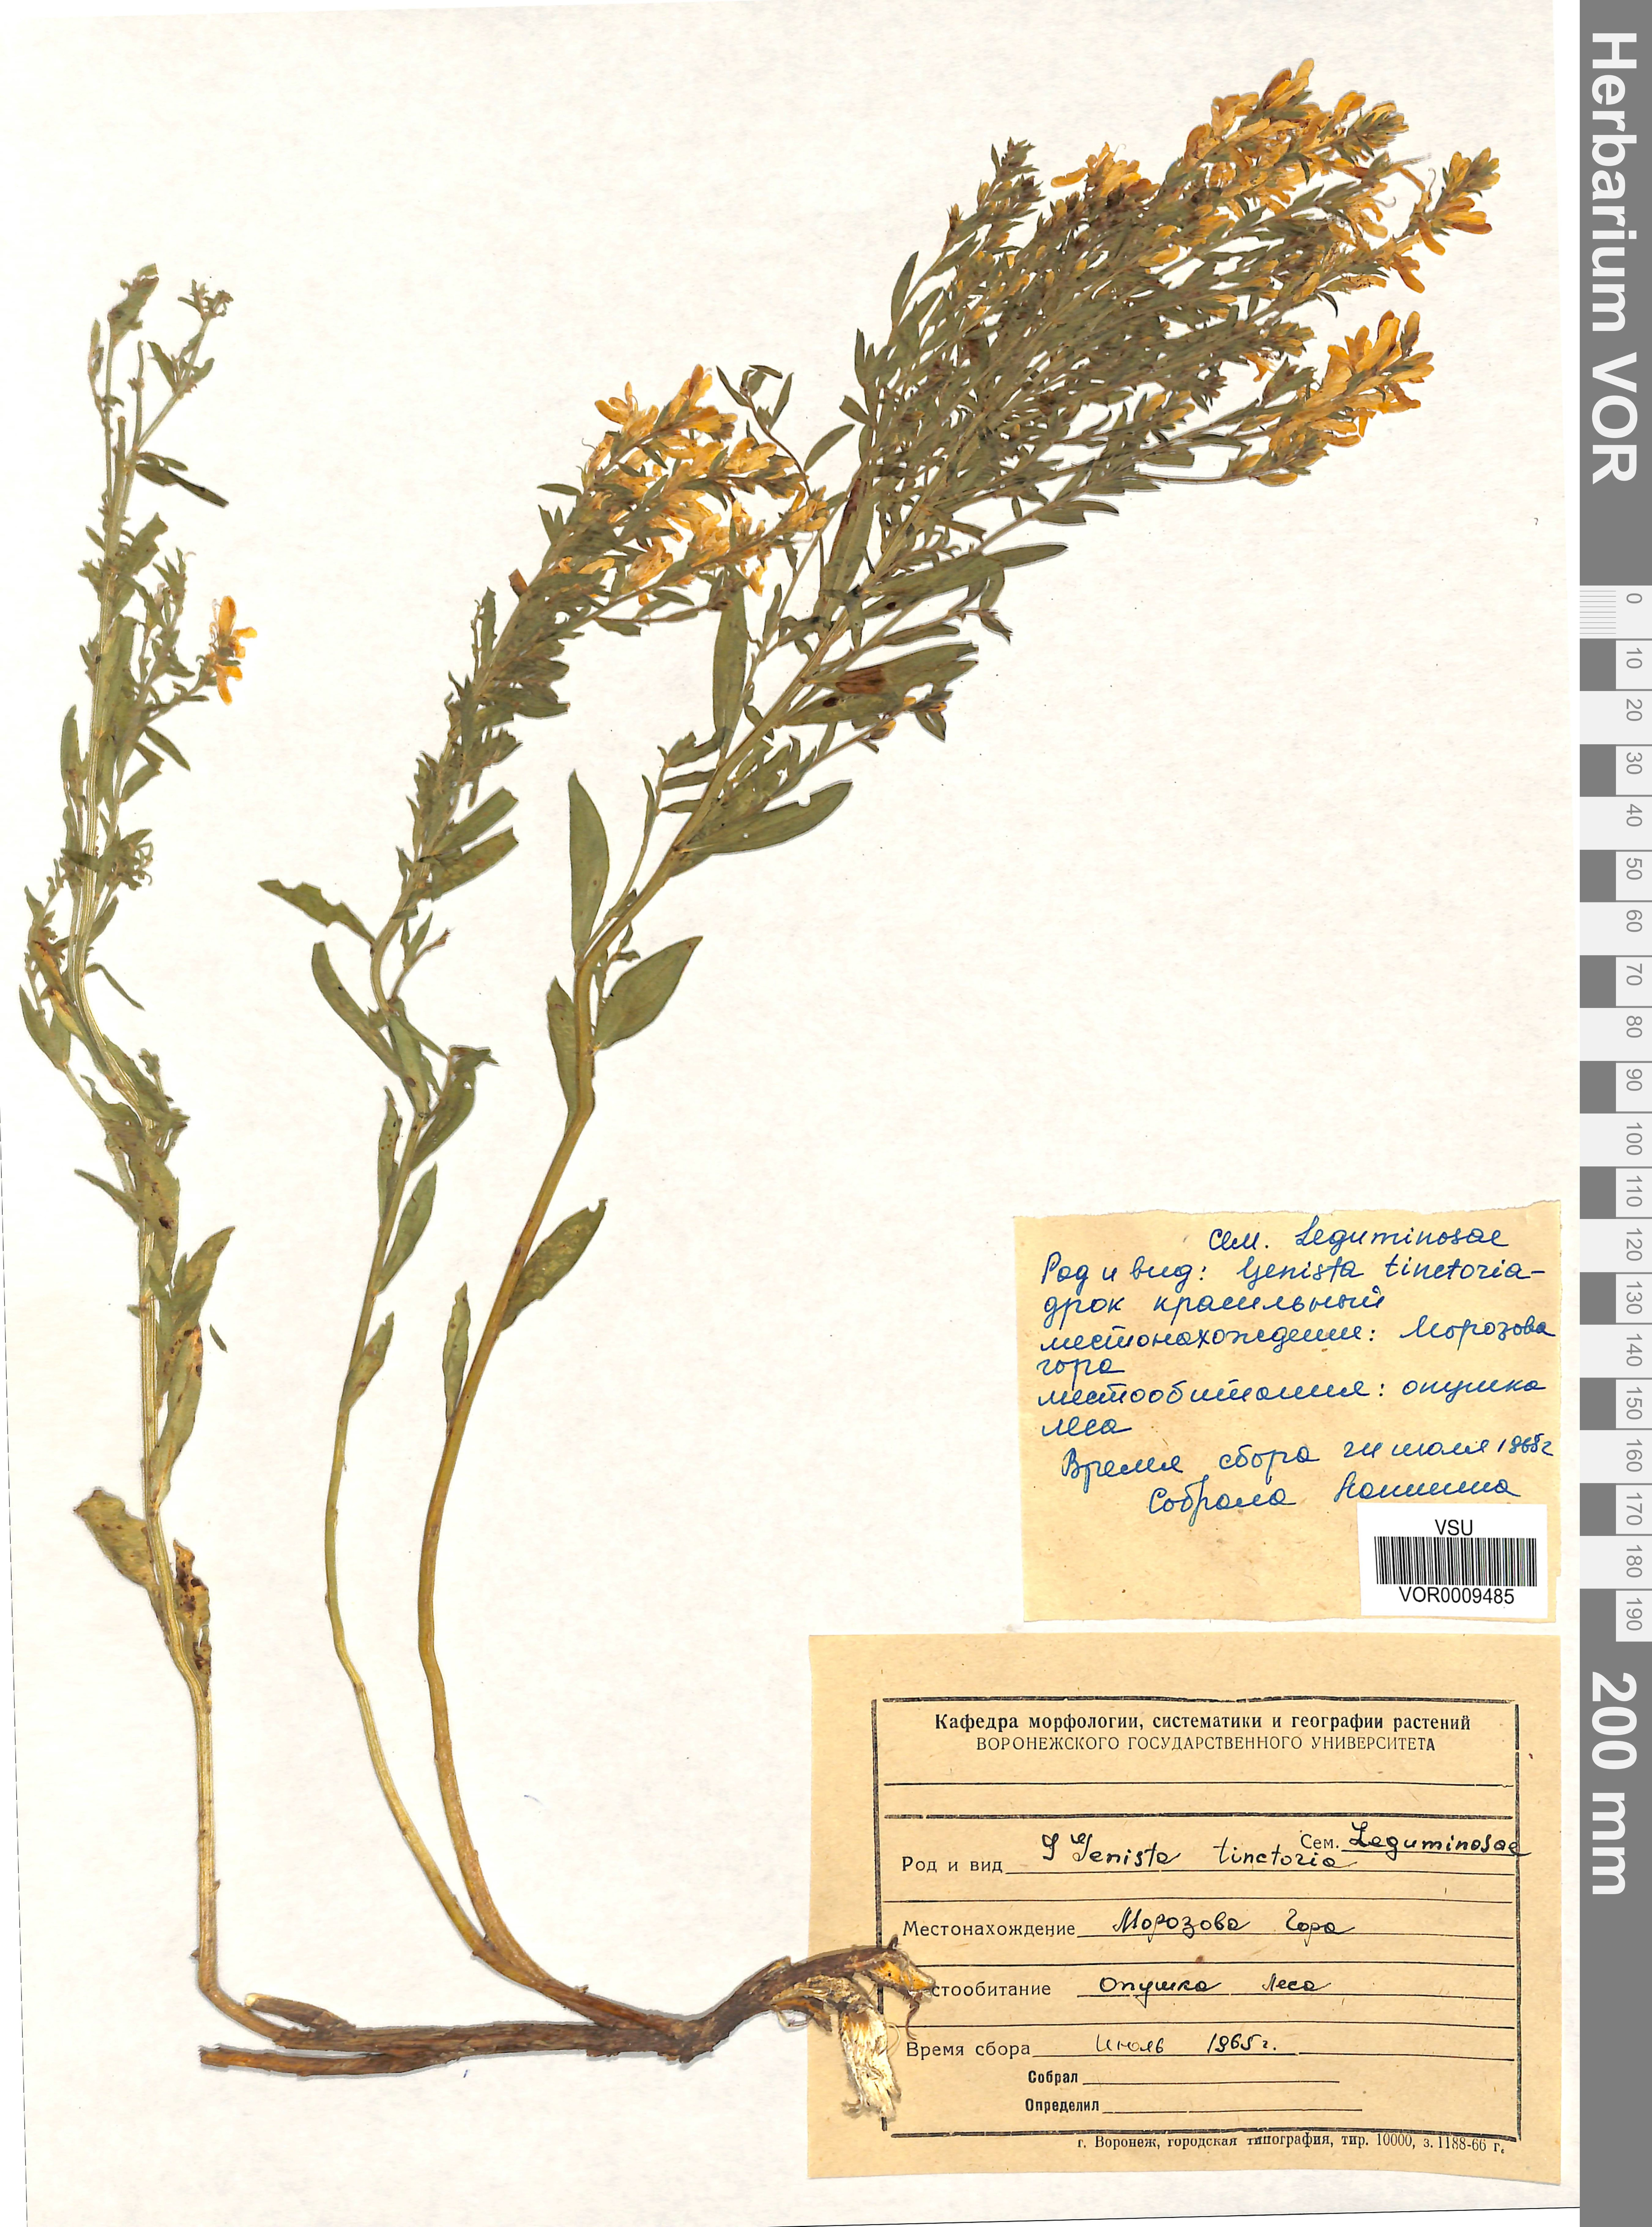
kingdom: Plantae
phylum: Tracheophyta
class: Magnoliopsida
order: Fabales
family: Fabaceae
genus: Genista
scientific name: Genista tinctoria
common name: Dyer's greenweed
